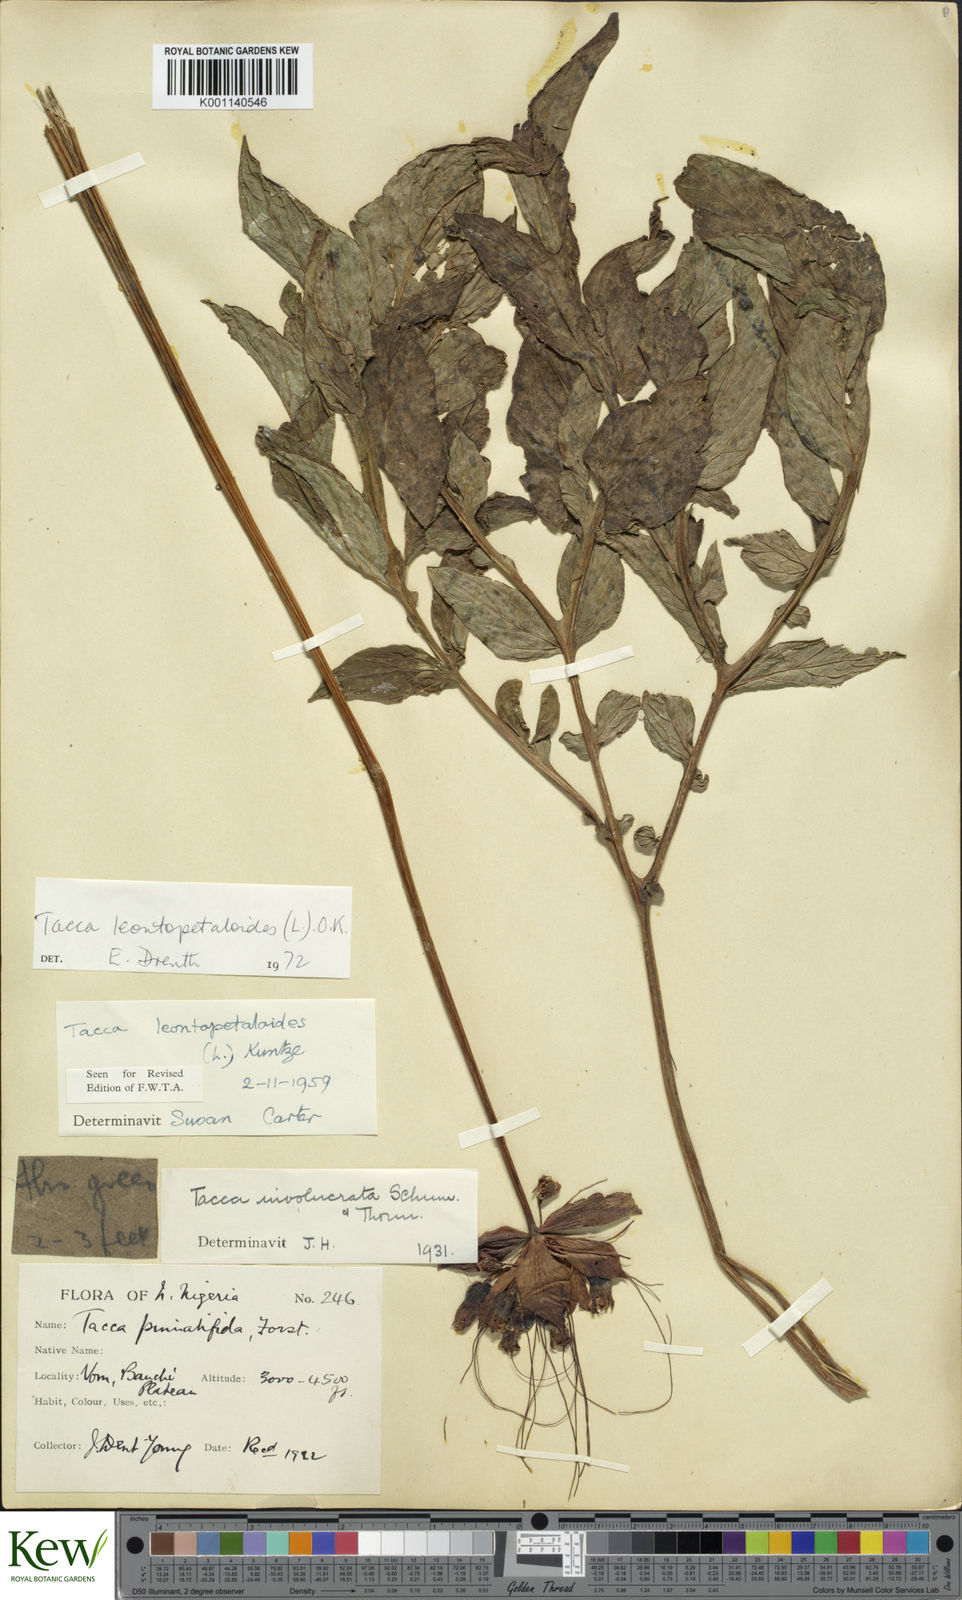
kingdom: Plantae
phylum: Tracheophyta
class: Liliopsida
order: Dioscoreales
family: Dioscoreaceae
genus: Tacca
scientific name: Tacca leontopetaloides
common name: Arrowroot
